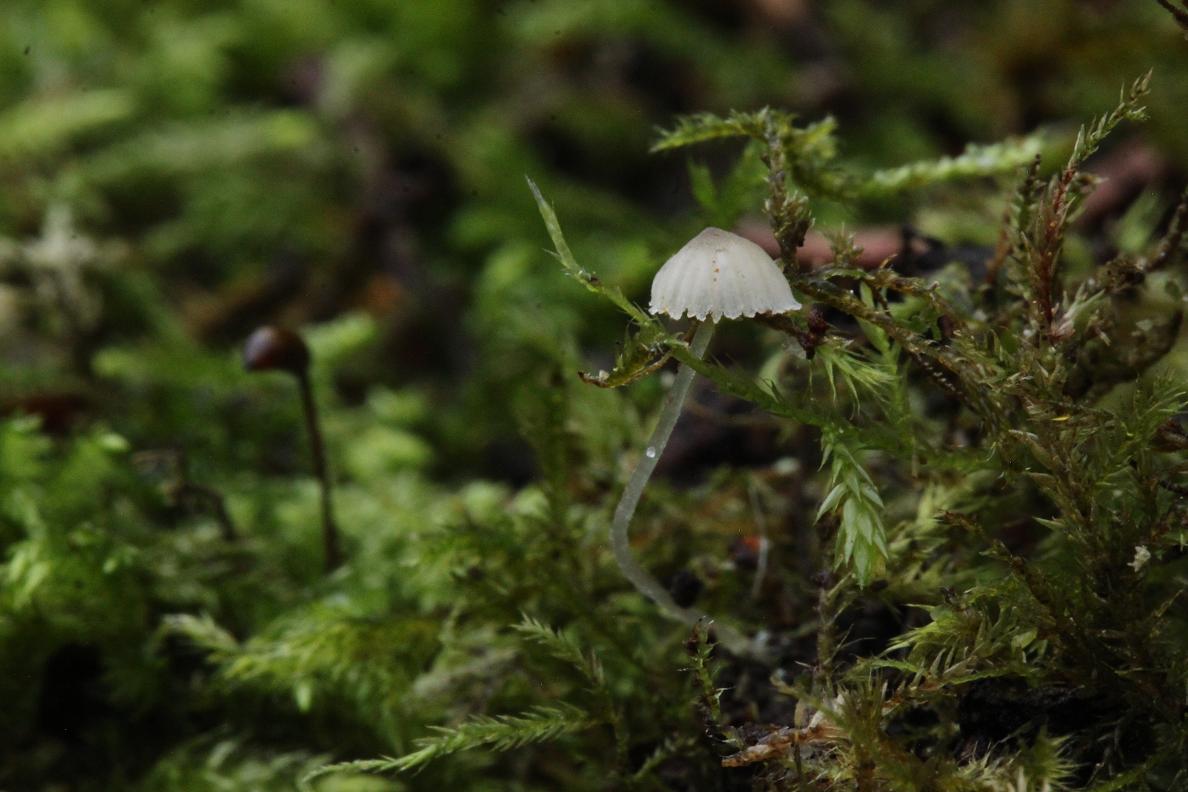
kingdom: Fungi
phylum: Basidiomycota
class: Agaricomycetes
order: Agaricales
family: Mycenaceae
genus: Mycena
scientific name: Mycena
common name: huesvamp
